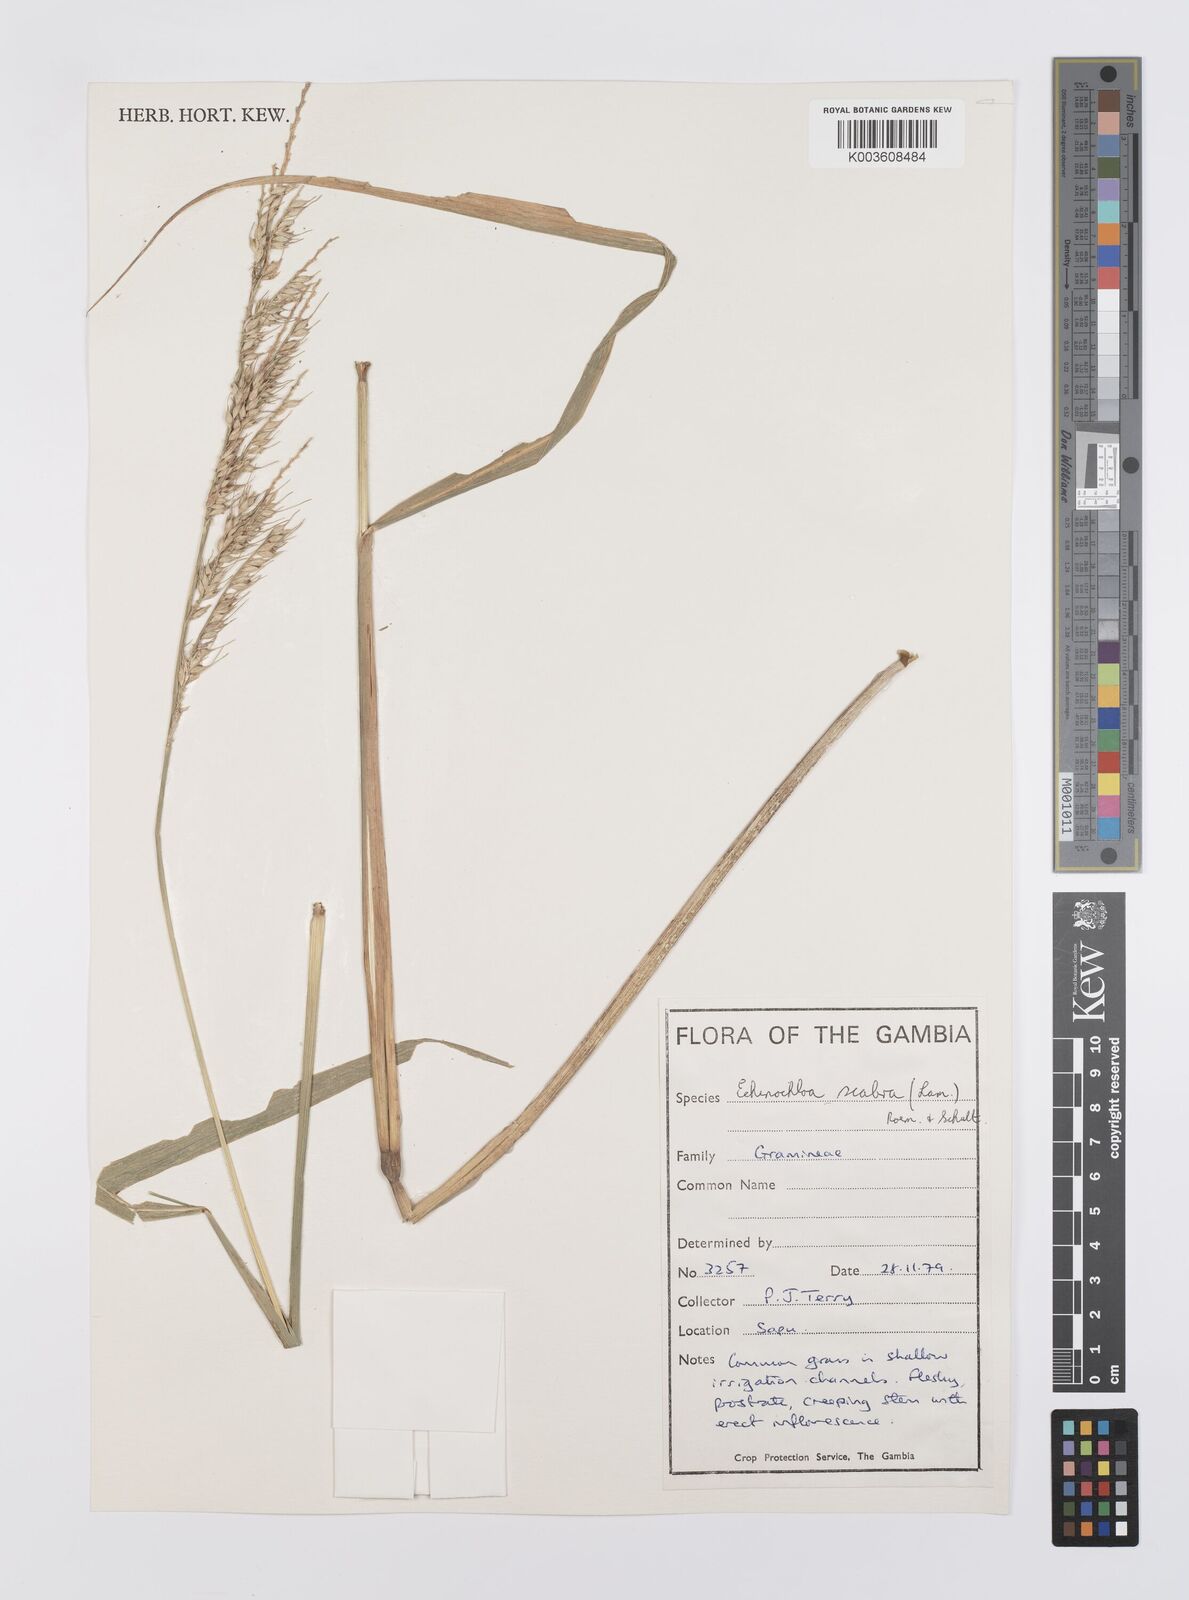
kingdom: Plantae
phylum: Tracheophyta
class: Liliopsida
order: Poales
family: Poaceae
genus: Echinochloa
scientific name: Echinochloa stagnina
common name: Burgu grass
